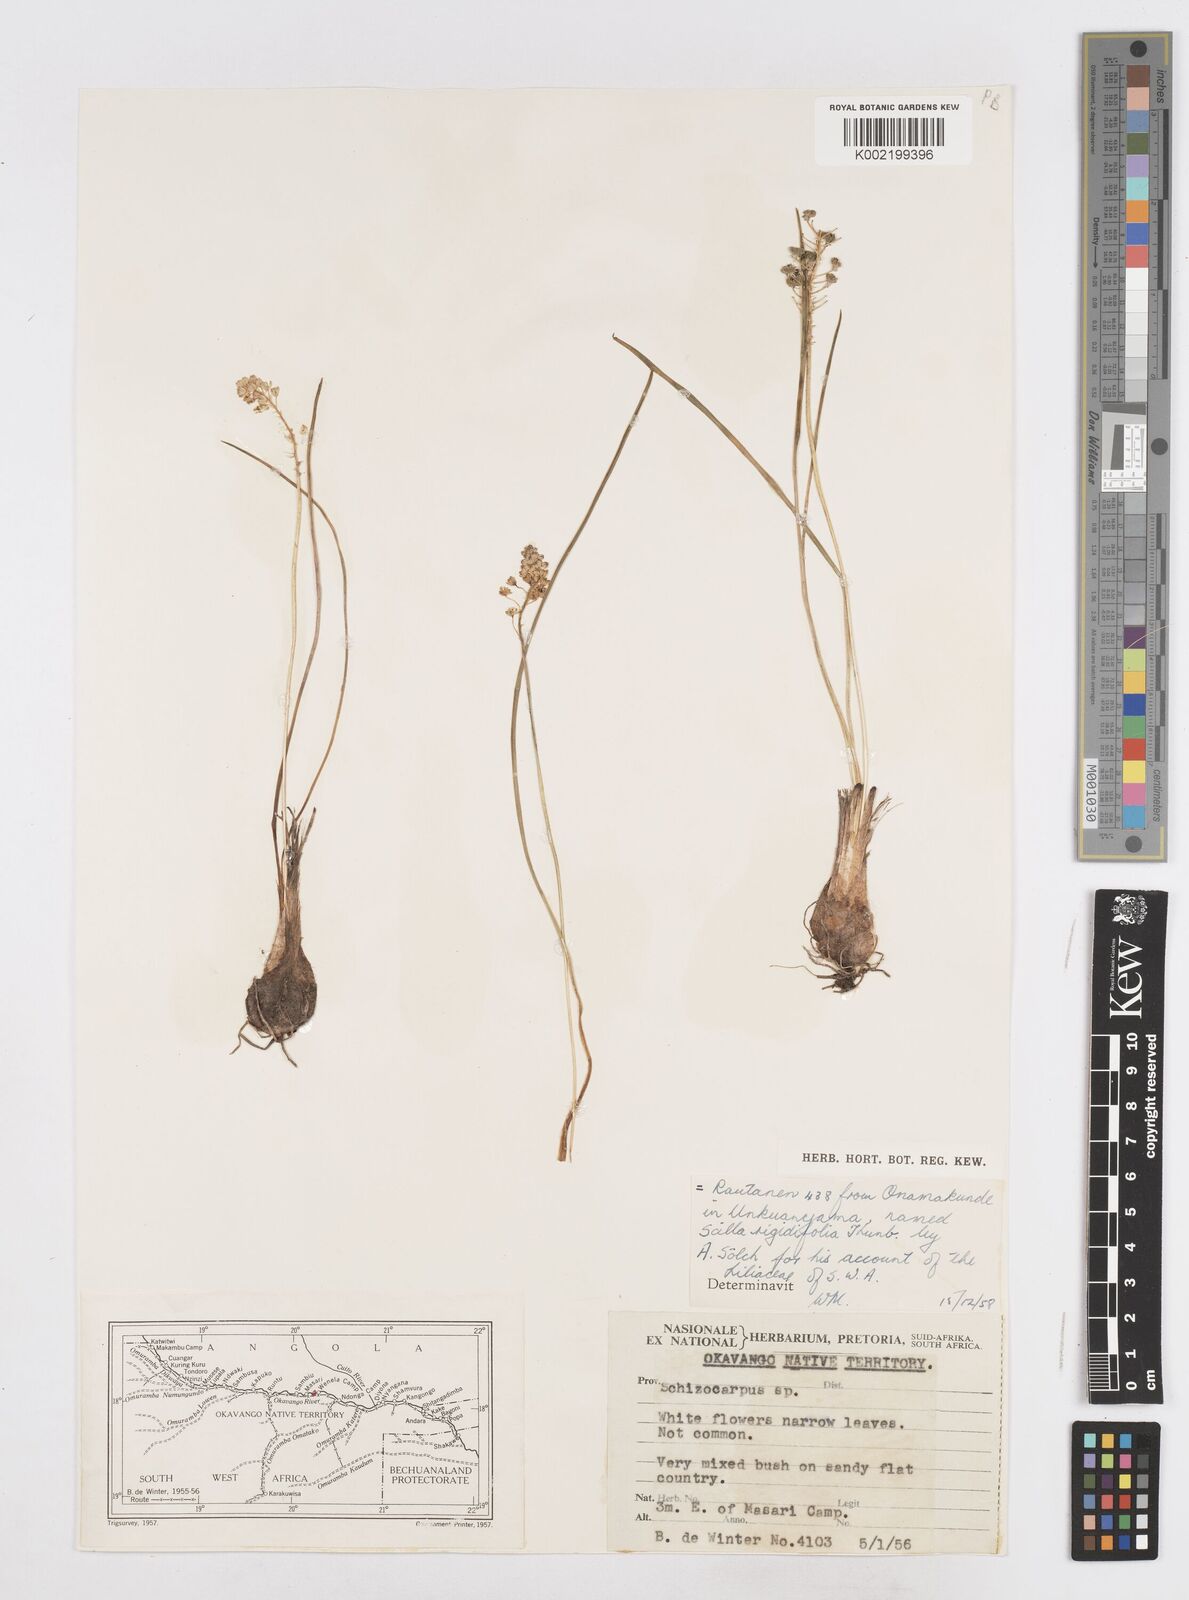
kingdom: Plantae
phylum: Tracheophyta
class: Liliopsida
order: Asparagales
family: Asparagaceae
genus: Schizocarphus
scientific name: Schizocarphus nervosus
